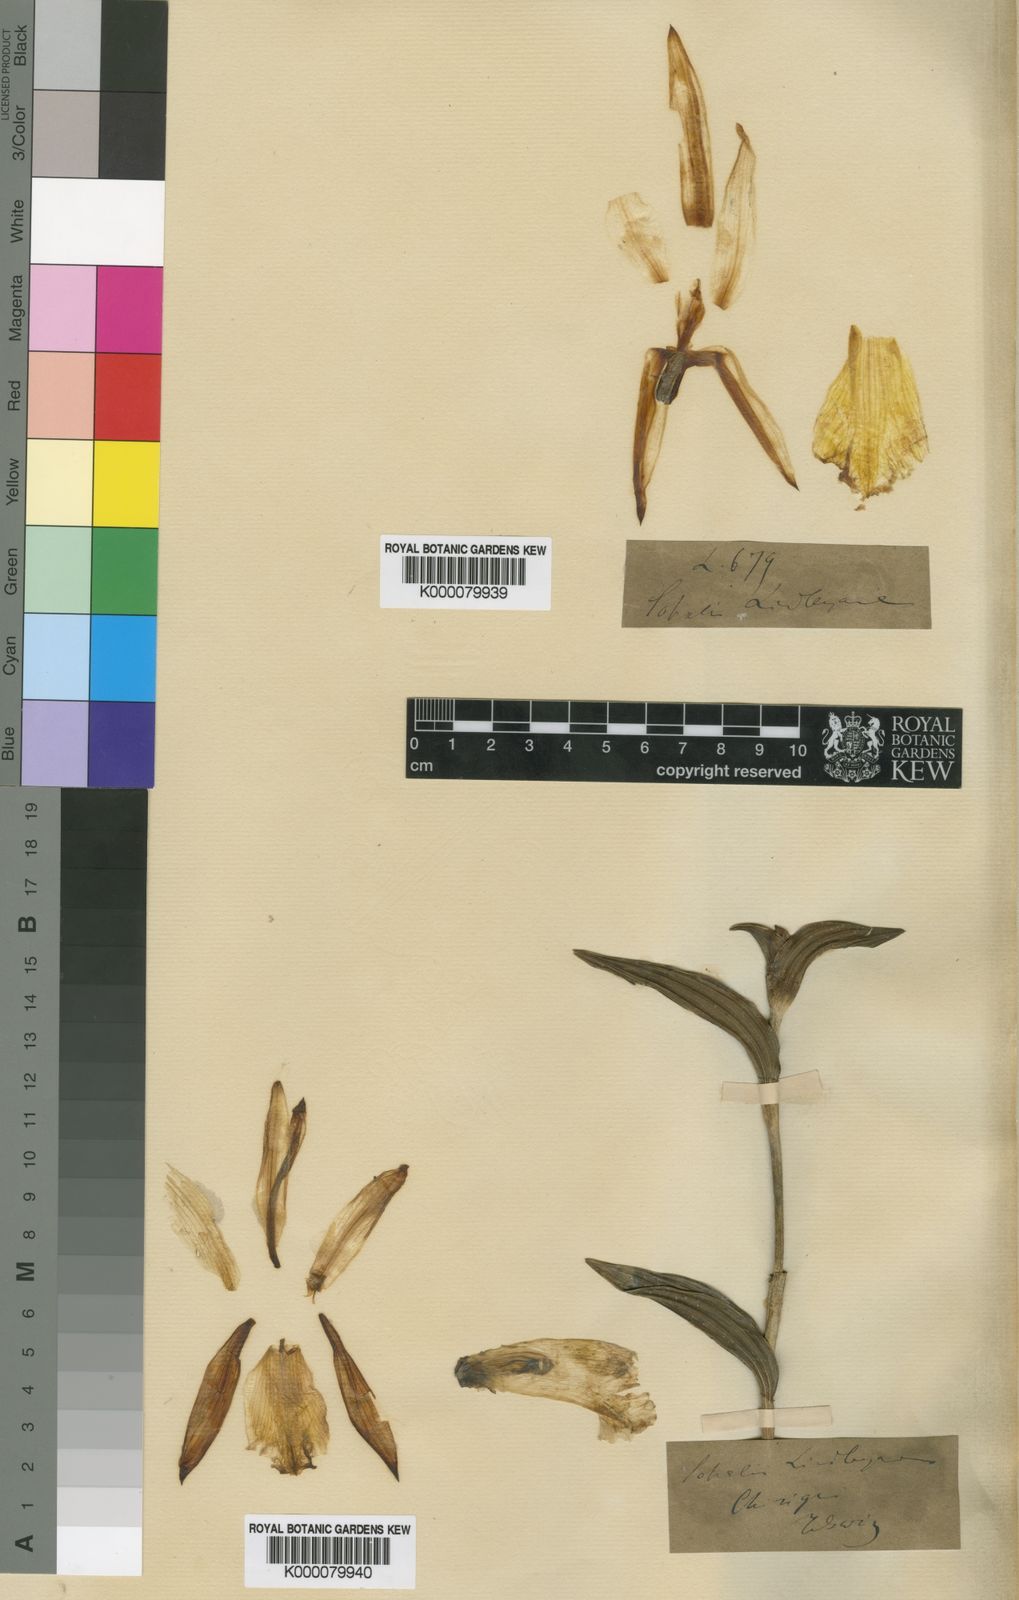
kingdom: Plantae
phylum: Tracheophyta
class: Liliopsida
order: Asparagales
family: Orchidaceae
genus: Sobralia
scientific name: Sobralia lindleyana
